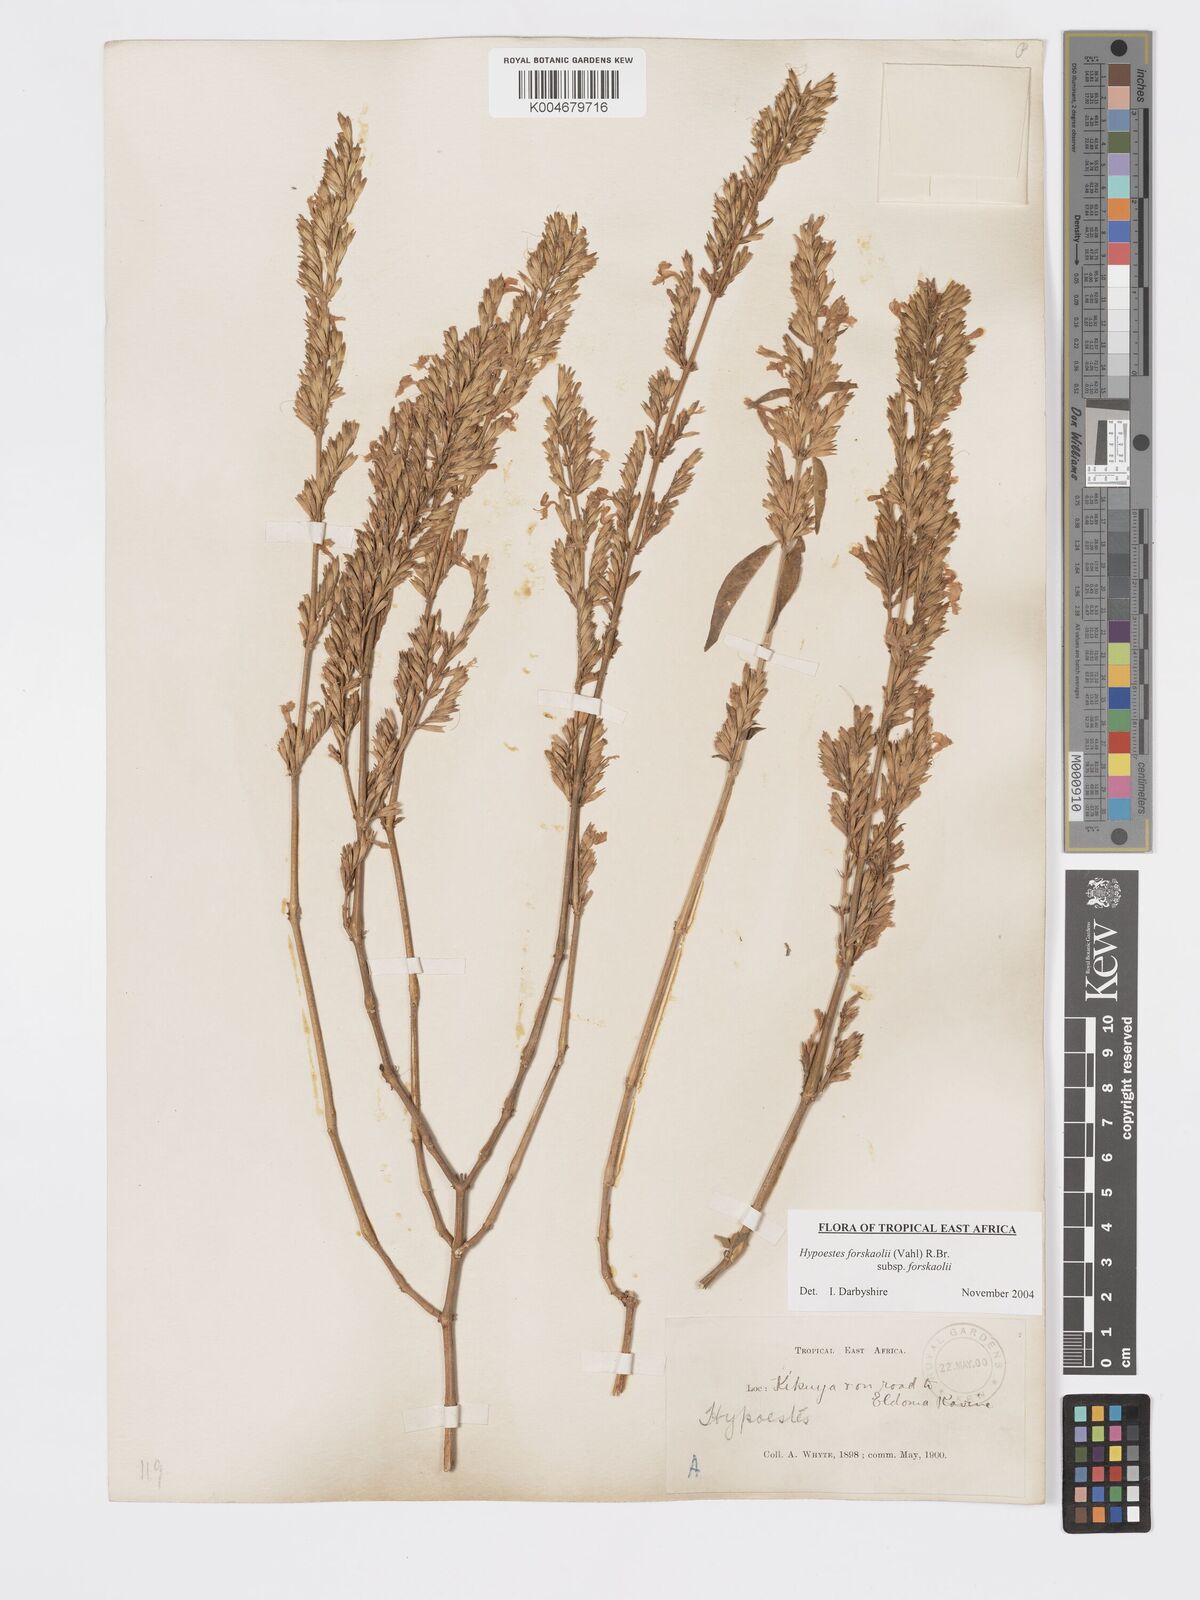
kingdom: Plantae
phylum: Tracheophyta
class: Magnoliopsida
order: Lamiales
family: Acanthaceae
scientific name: Acanthaceae
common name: Acanthaceae
